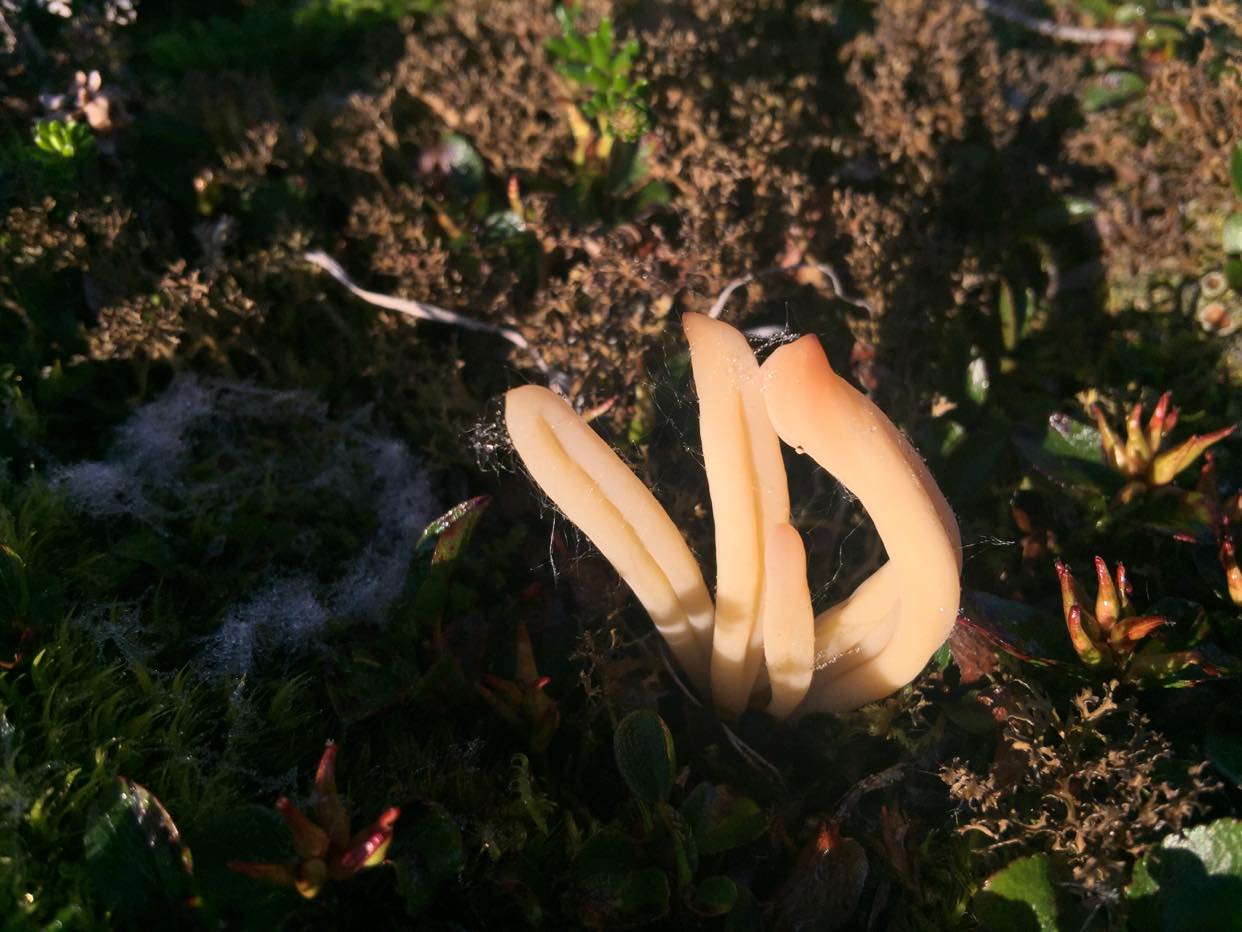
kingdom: Fungi
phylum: Basidiomycota
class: Agaricomycetes
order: Agaricales
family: Clavariaceae
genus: Clavaria
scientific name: Clavaria argillacea
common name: lerfarvet køllesvamp
